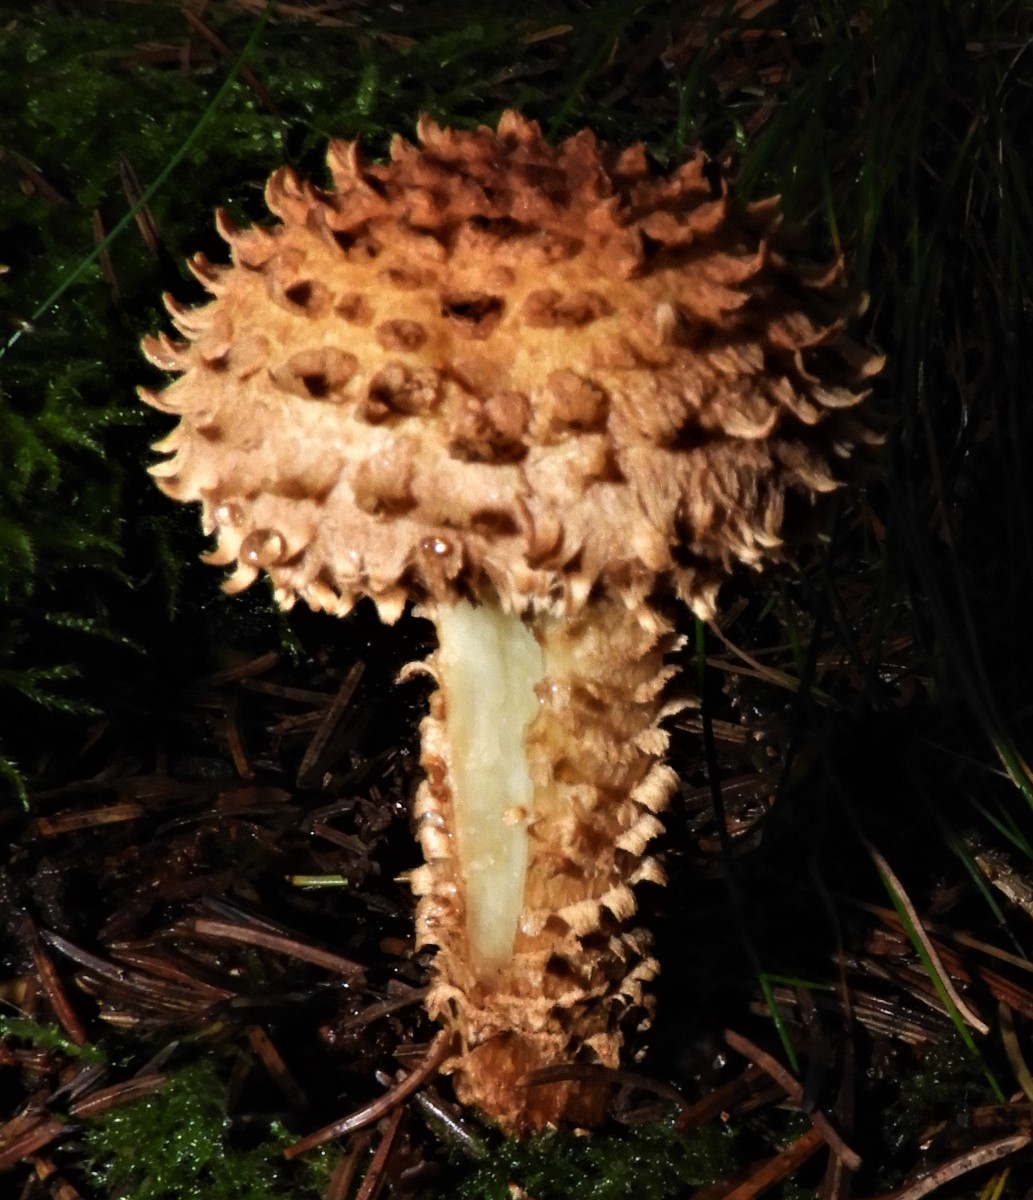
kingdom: Fungi
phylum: Basidiomycota
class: Agaricomycetes
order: Agaricales
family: Strophariaceae
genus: Pholiota
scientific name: Pholiota squarrosa
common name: krumskællet skælhat
